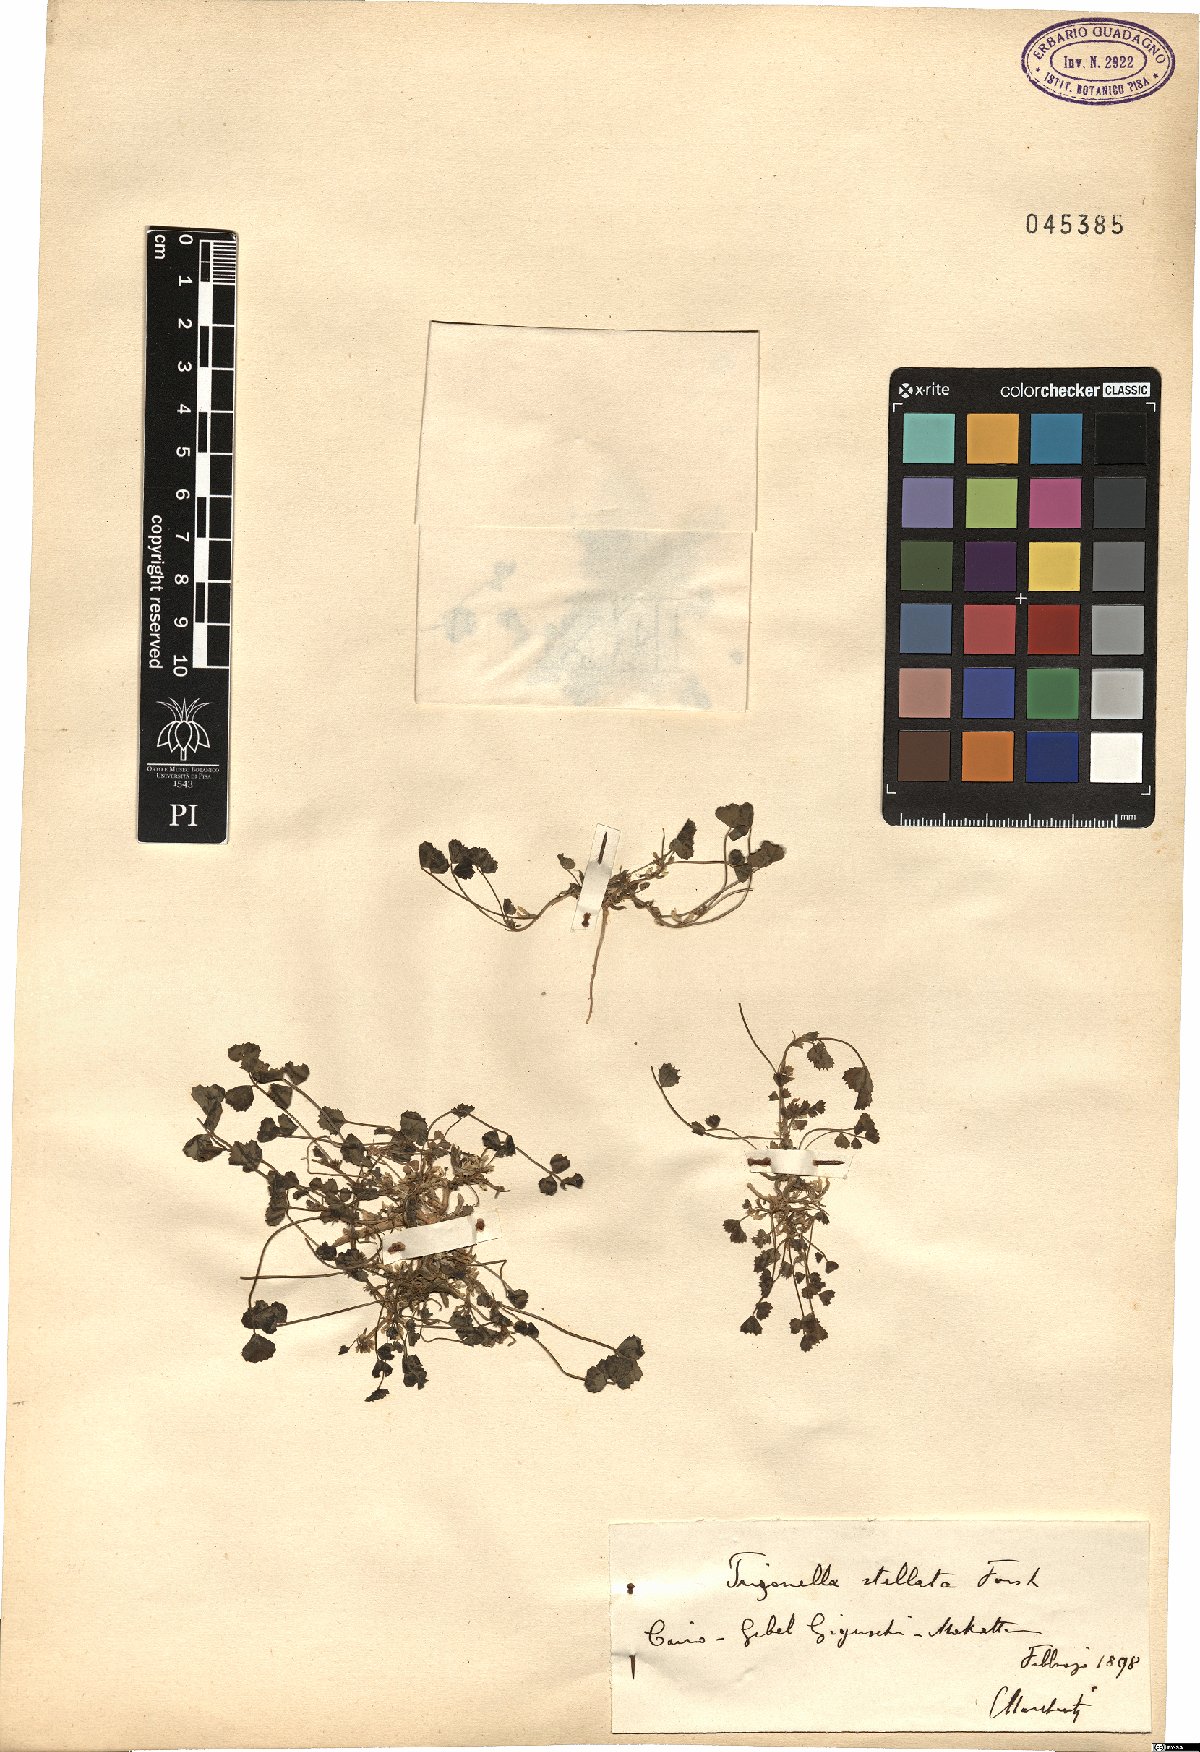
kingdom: Plantae
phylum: Tracheophyta
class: Magnoliopsida
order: Fabales
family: Fabaceae
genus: Trigonella
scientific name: Trigonella stellata
